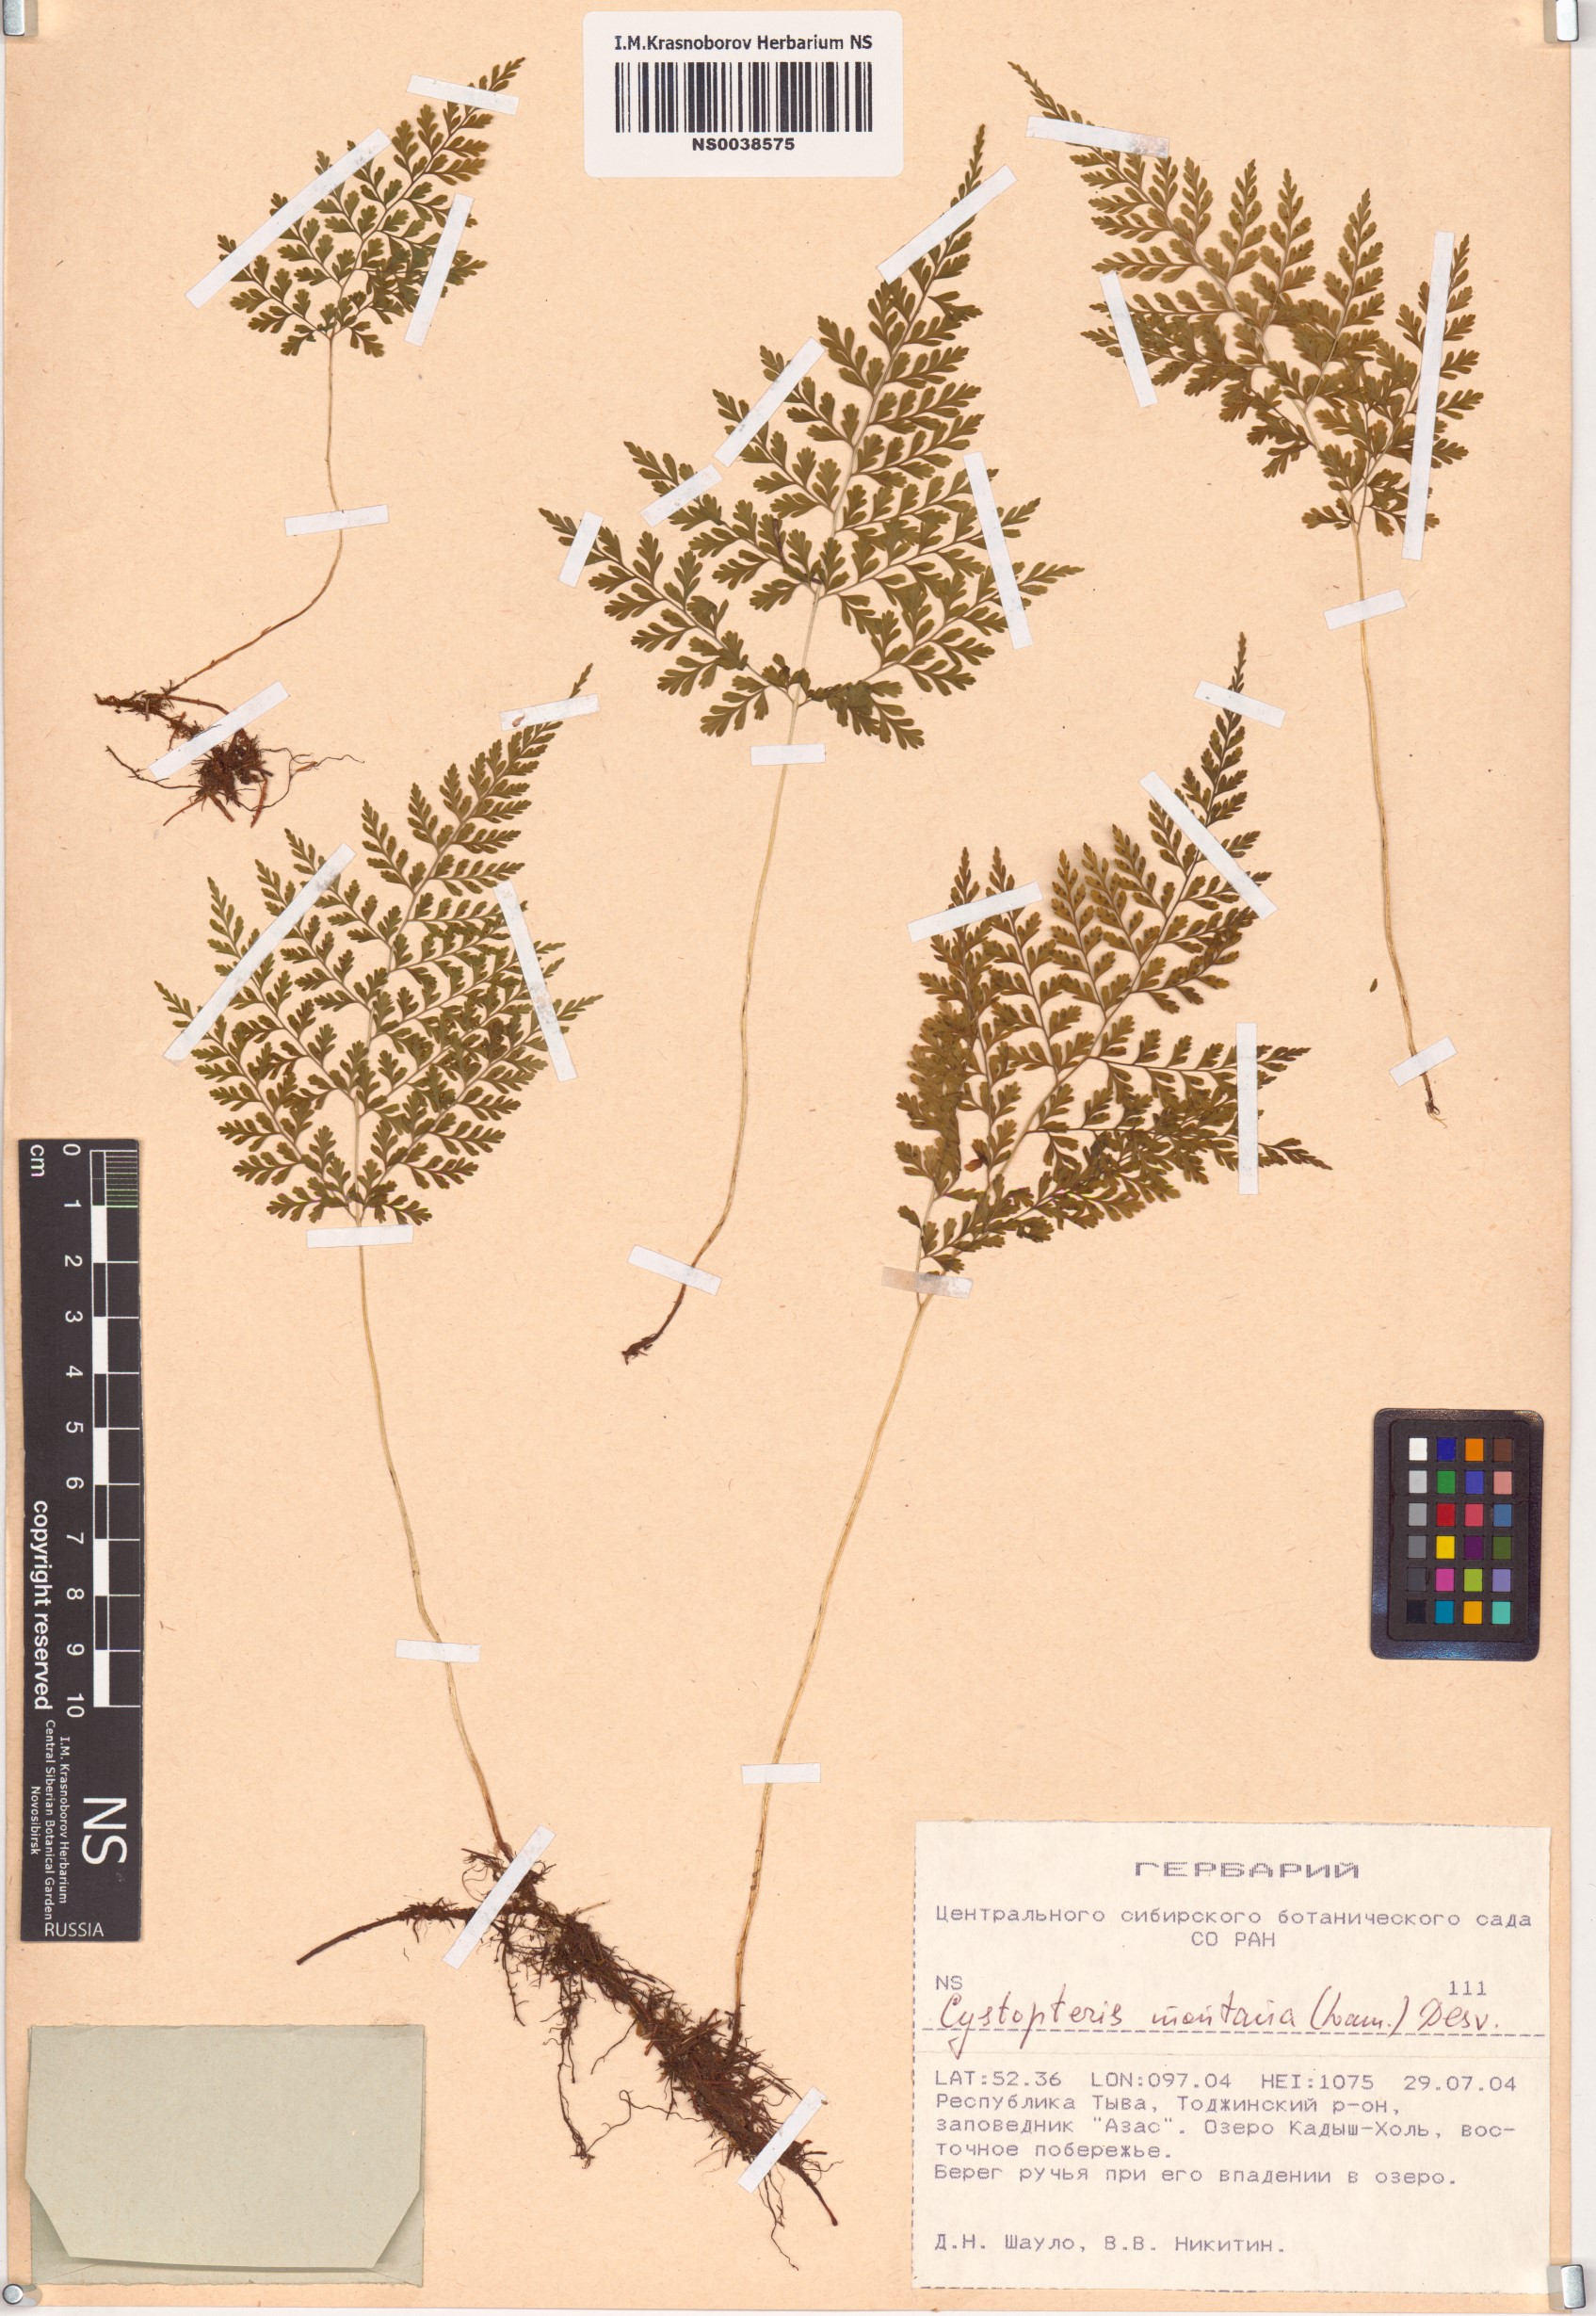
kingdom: Plantae
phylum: Tracheophyta
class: Polypodiopsida
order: Polypodiales
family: Cystopteridaceae
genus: Cystopteris
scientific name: Cystopteris montana
